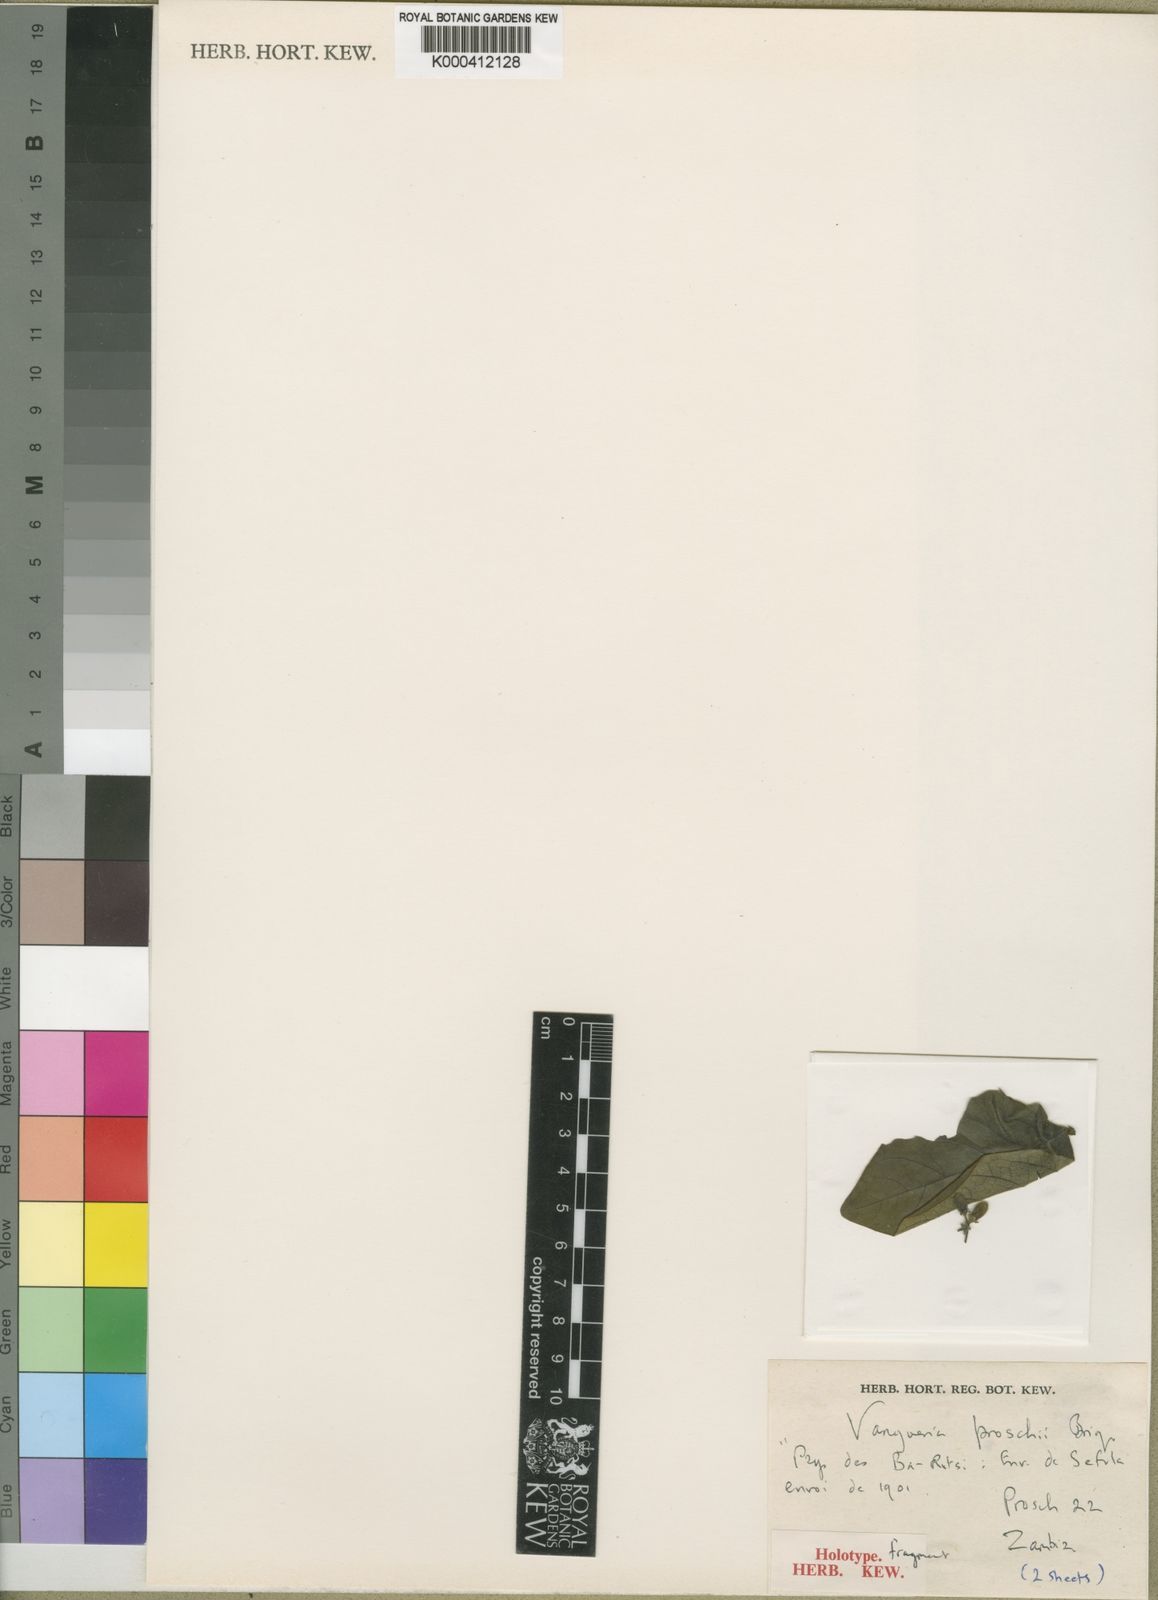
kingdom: Plantae
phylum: Tracheophyta
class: Magnoliopsida
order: Gentianales
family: Rubiaceae
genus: Vangueria
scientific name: Vangueria proschii
